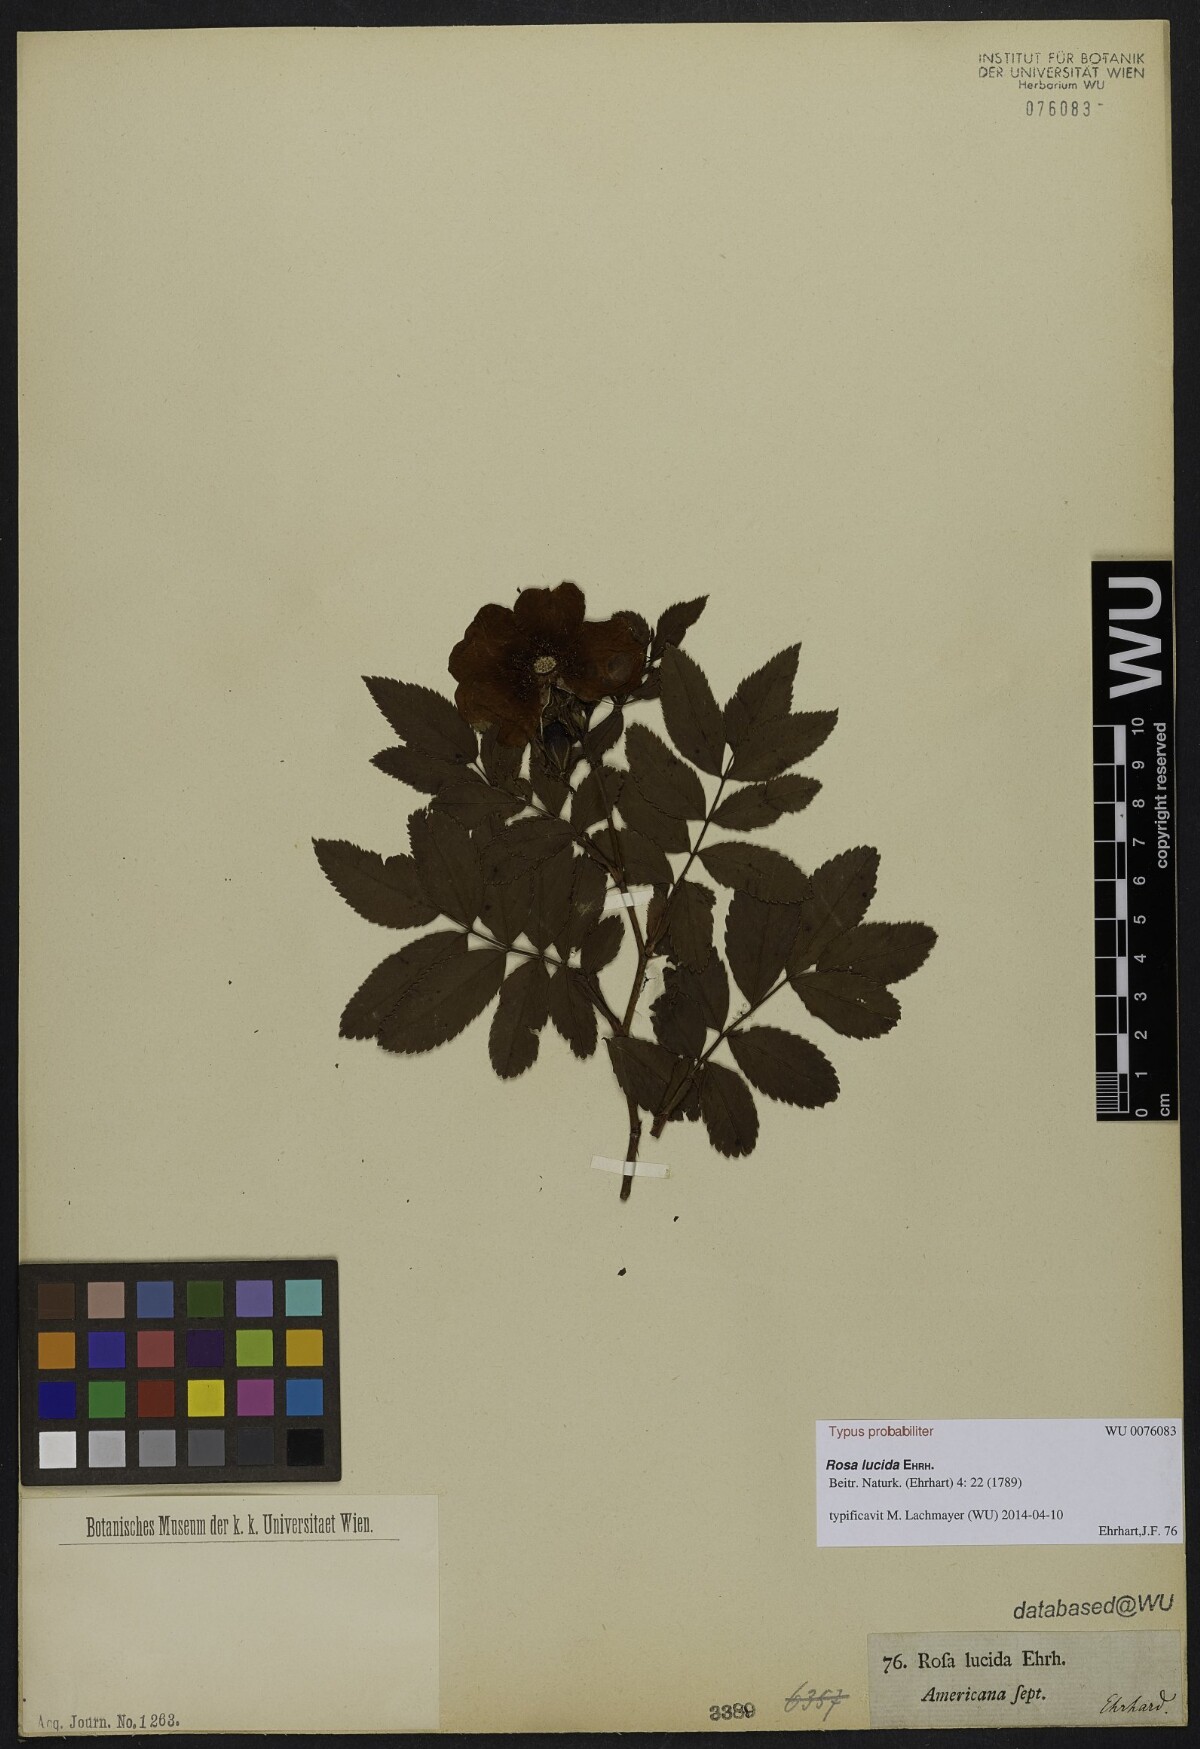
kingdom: Plantae
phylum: Tracheophyta
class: Magnoliopsida
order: Rosales
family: Rosaceae
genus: Rosa
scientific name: Rosa virginiana
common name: Virginian rose
